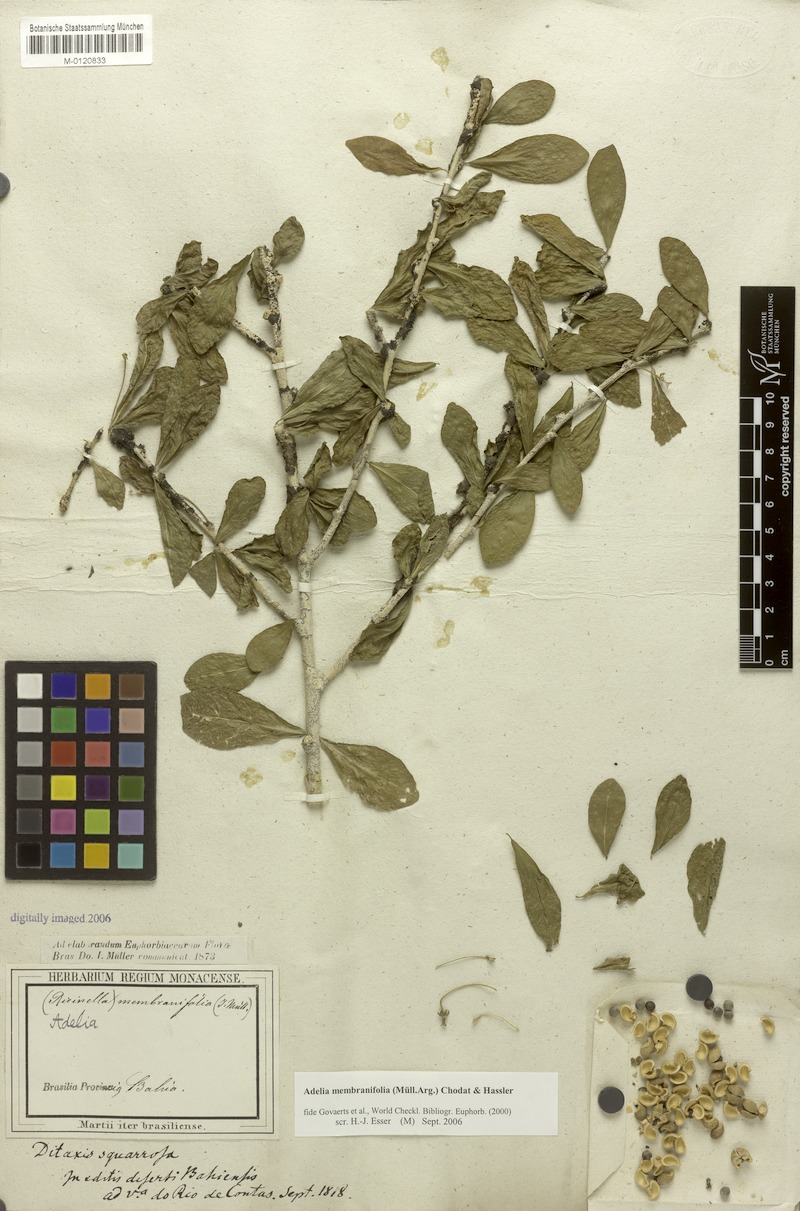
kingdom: Plantae
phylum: Tracheophyta
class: Magnoliopsida
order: Malpighiales
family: Euphorbiaceae
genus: Adelia
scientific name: Adelia membranifolia
